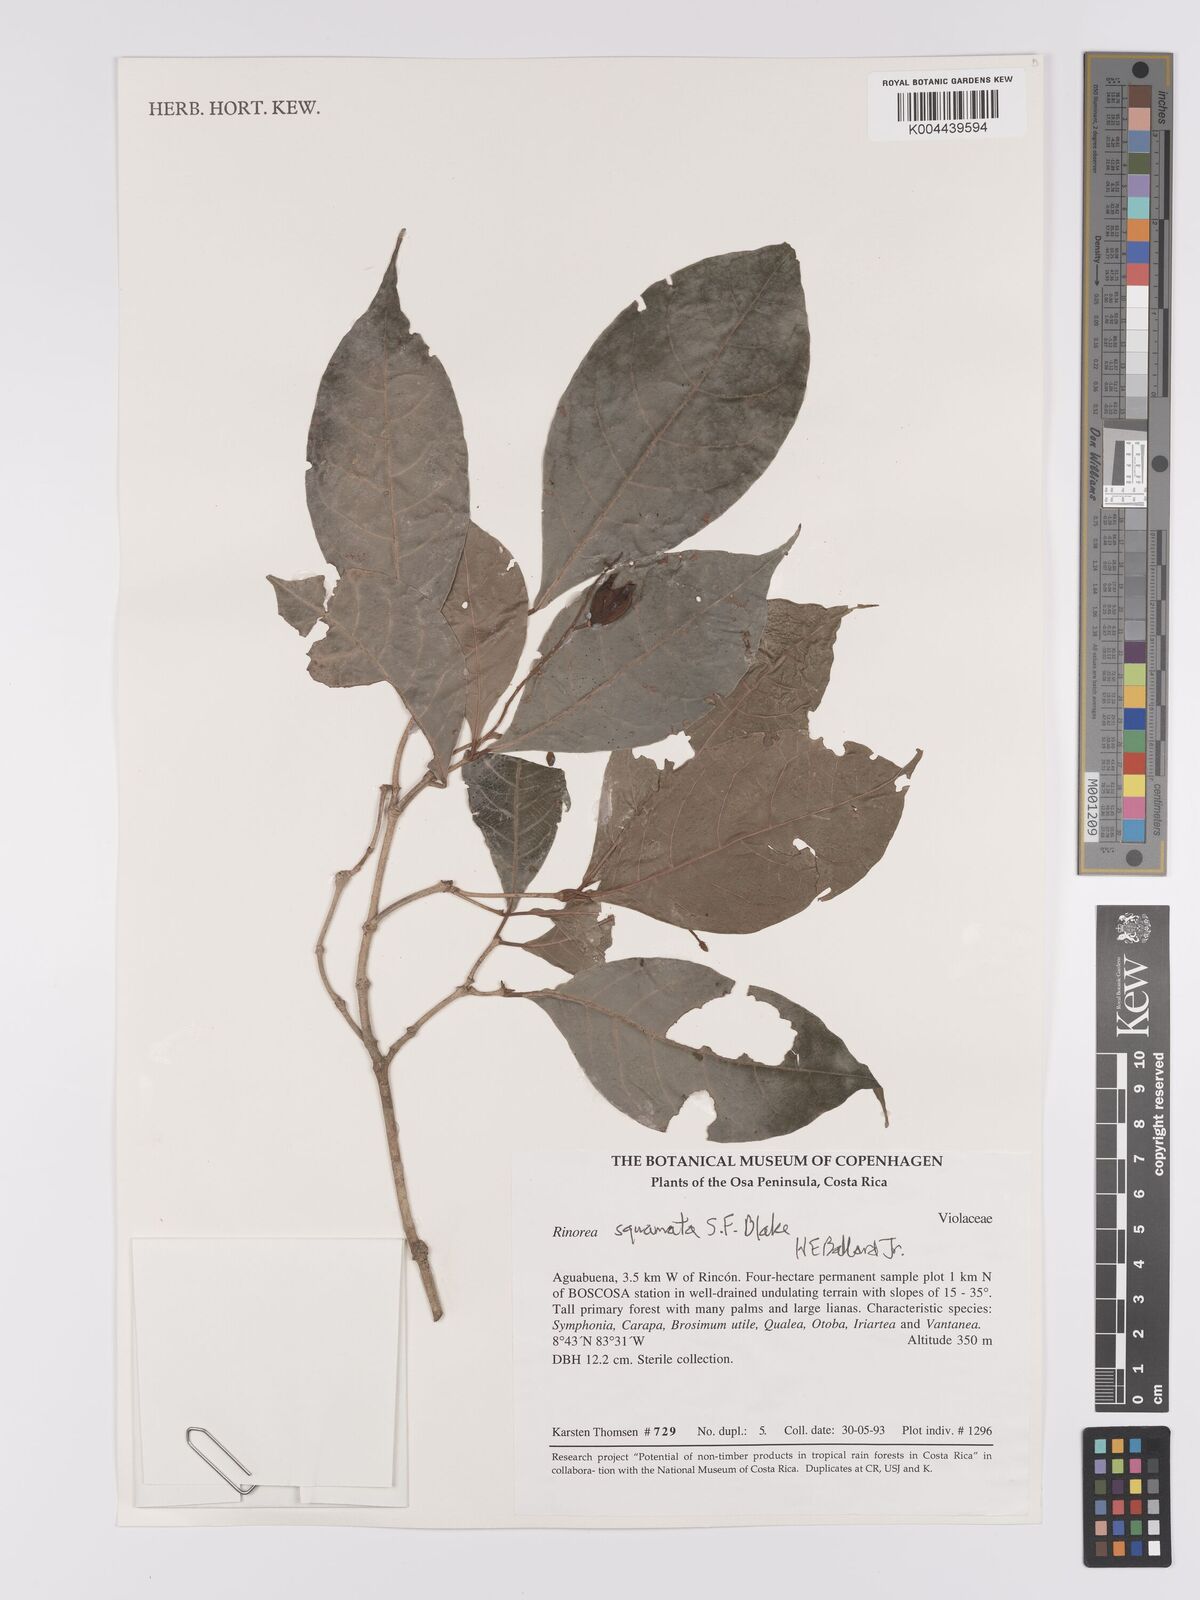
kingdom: Plantae
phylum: Tracheophyta
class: Magnoliopsida
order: Malpighiales
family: Violaceae
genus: Rinorea
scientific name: Rinorea squamata
